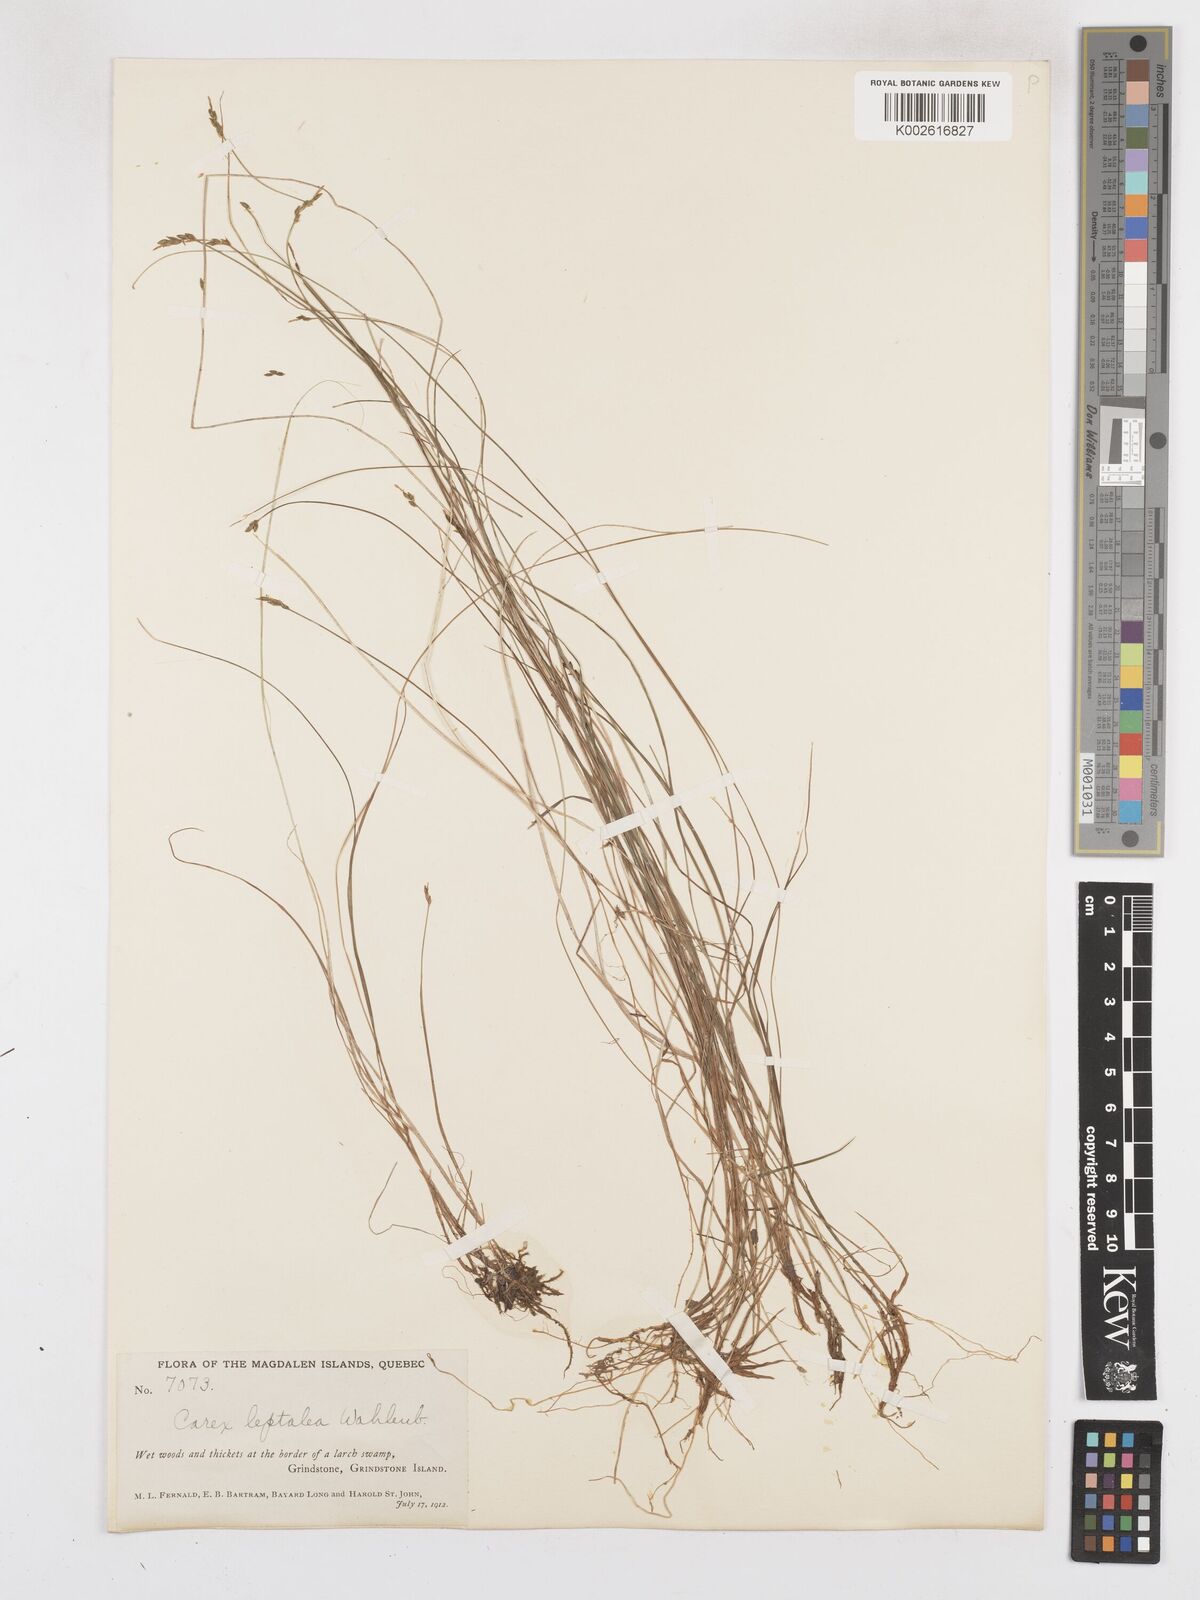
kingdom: Plantae
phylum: Tracheophyta
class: Liliopsida
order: Poales
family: Cyperaceae
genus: Carex
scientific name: Carex leptalea
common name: Bristly-stalked sedge
